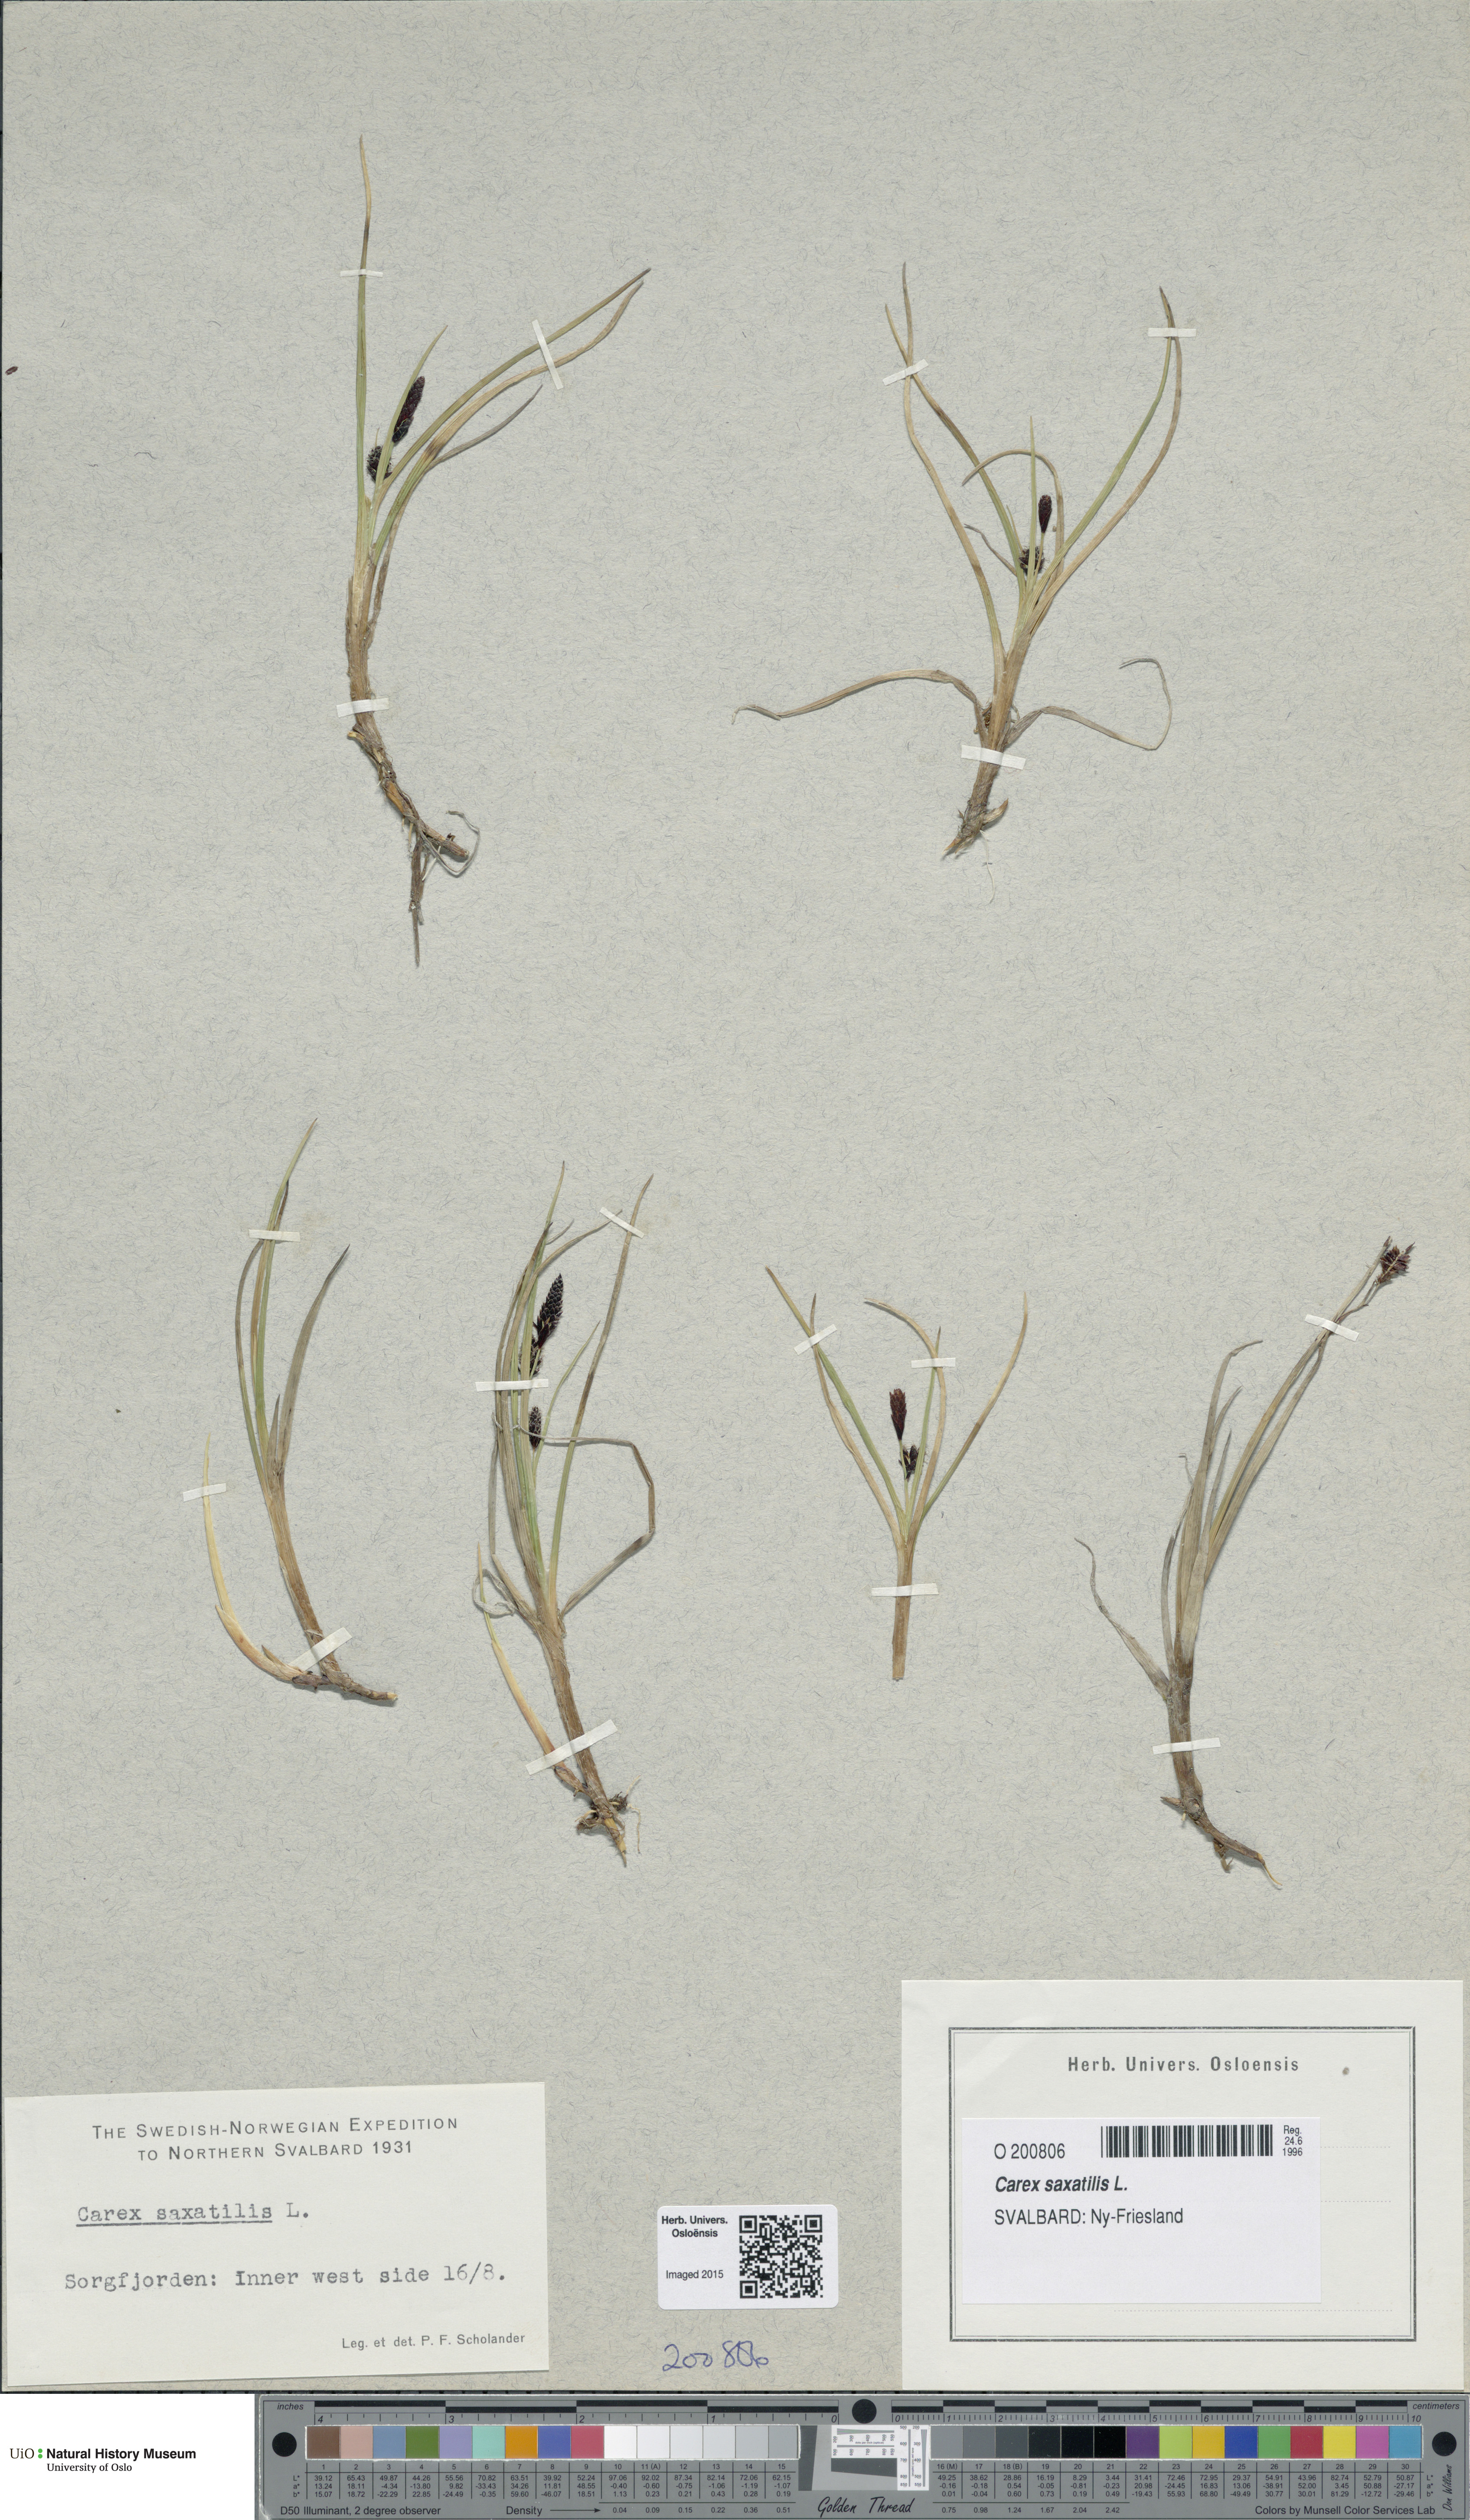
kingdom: Plantae
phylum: Tracheophyta
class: Liliopsida
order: Poales
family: Cyperaceae
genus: Carex
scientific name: Carex saxatilis
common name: Russet sedge
